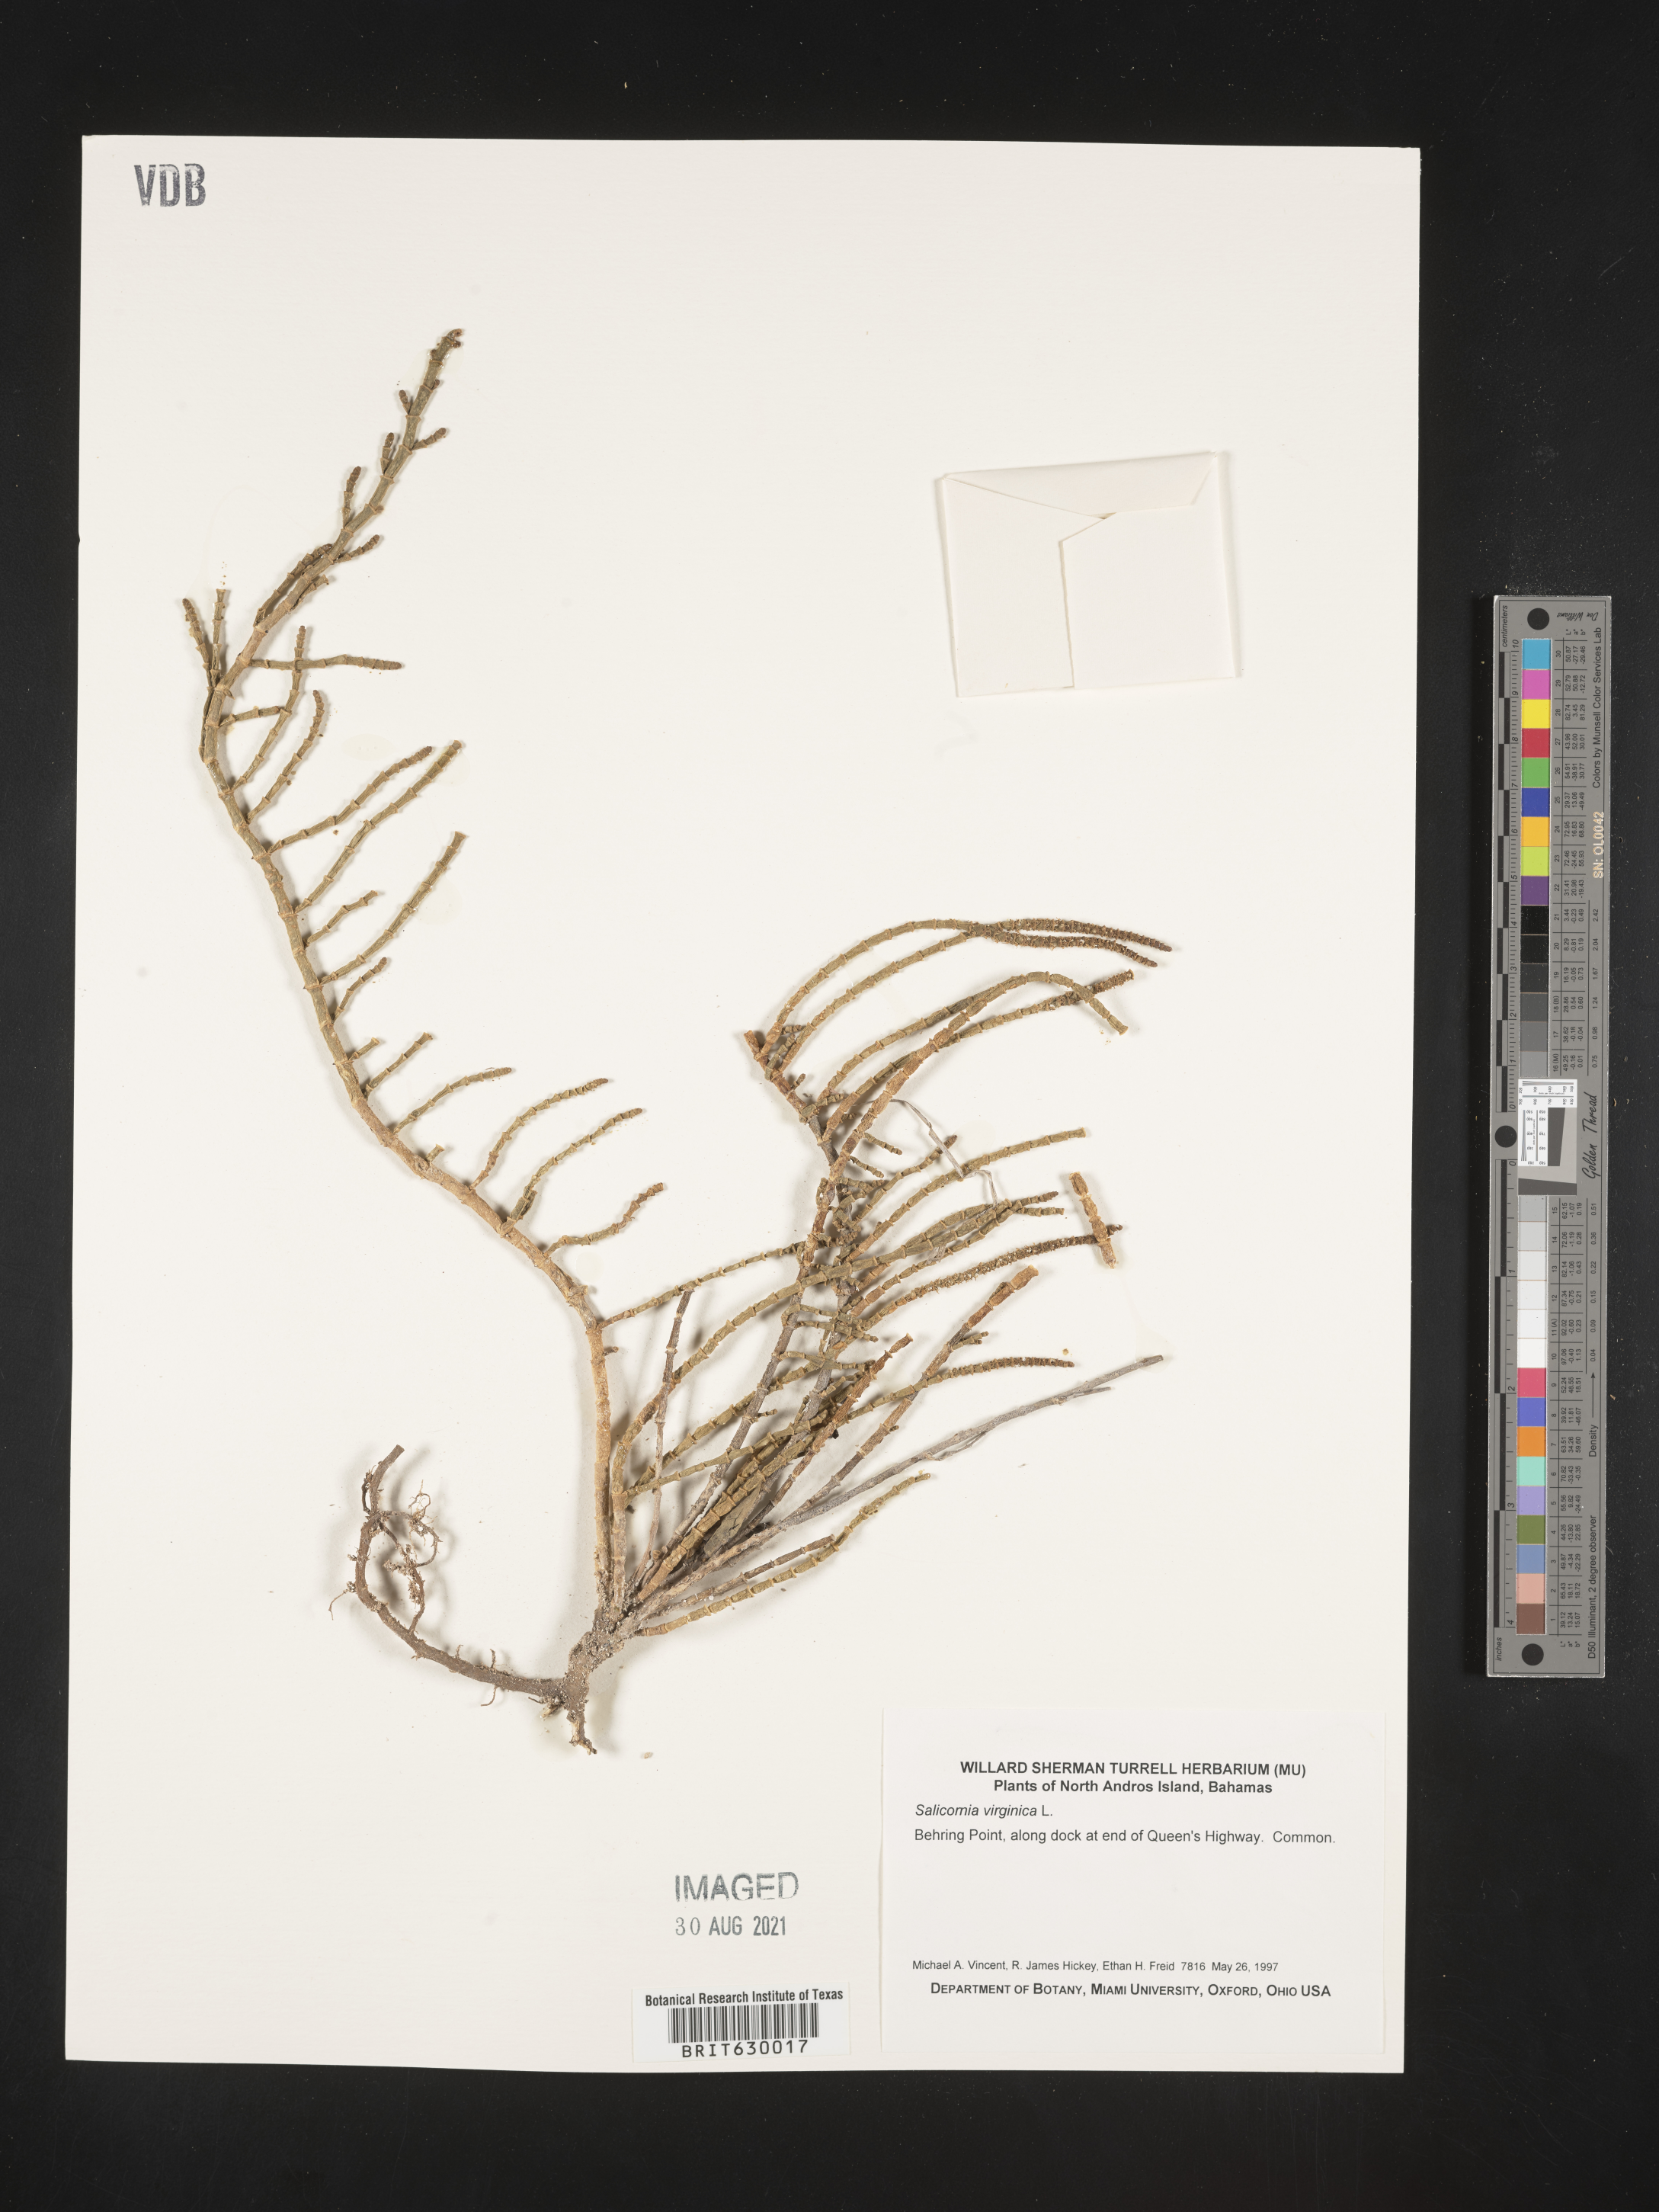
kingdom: Plantae
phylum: Tracheophyta
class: Magnoliopsida
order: Caryophyllales
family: Amaranthaceae
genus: Salicornia
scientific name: Salicornia virginica
